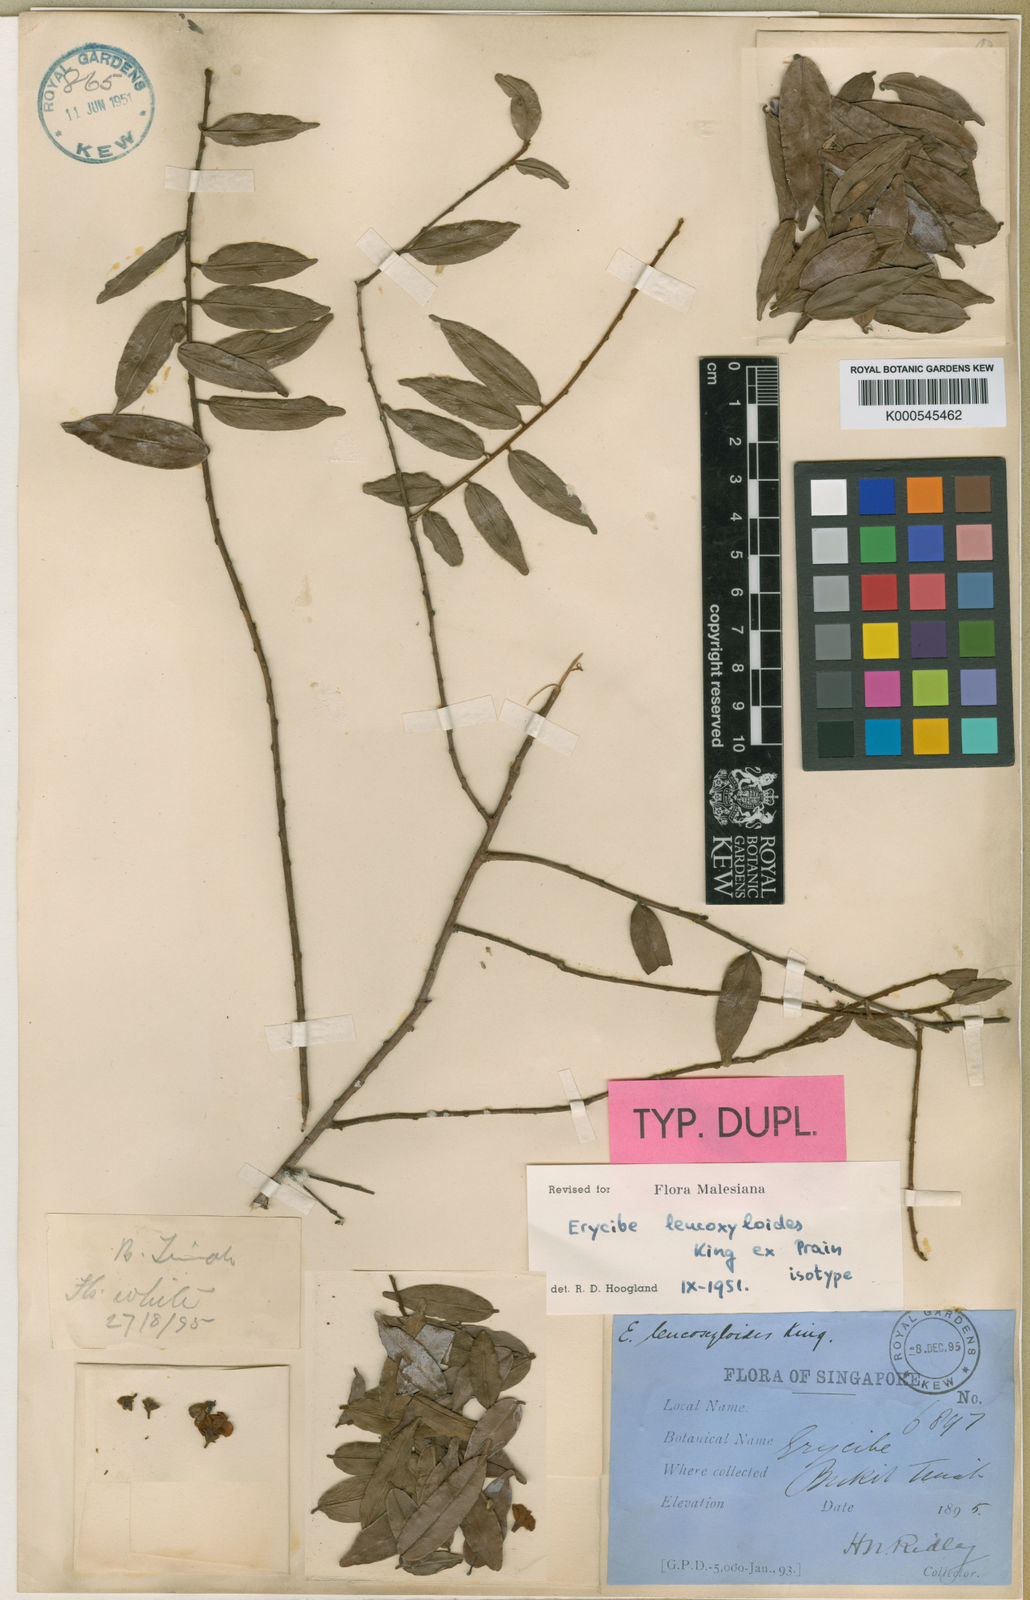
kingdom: Plantae
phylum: Tracheophyta
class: Magnoliopsida
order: Solanales
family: Convolvulaceae
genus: Erycibe
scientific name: Erycibe
